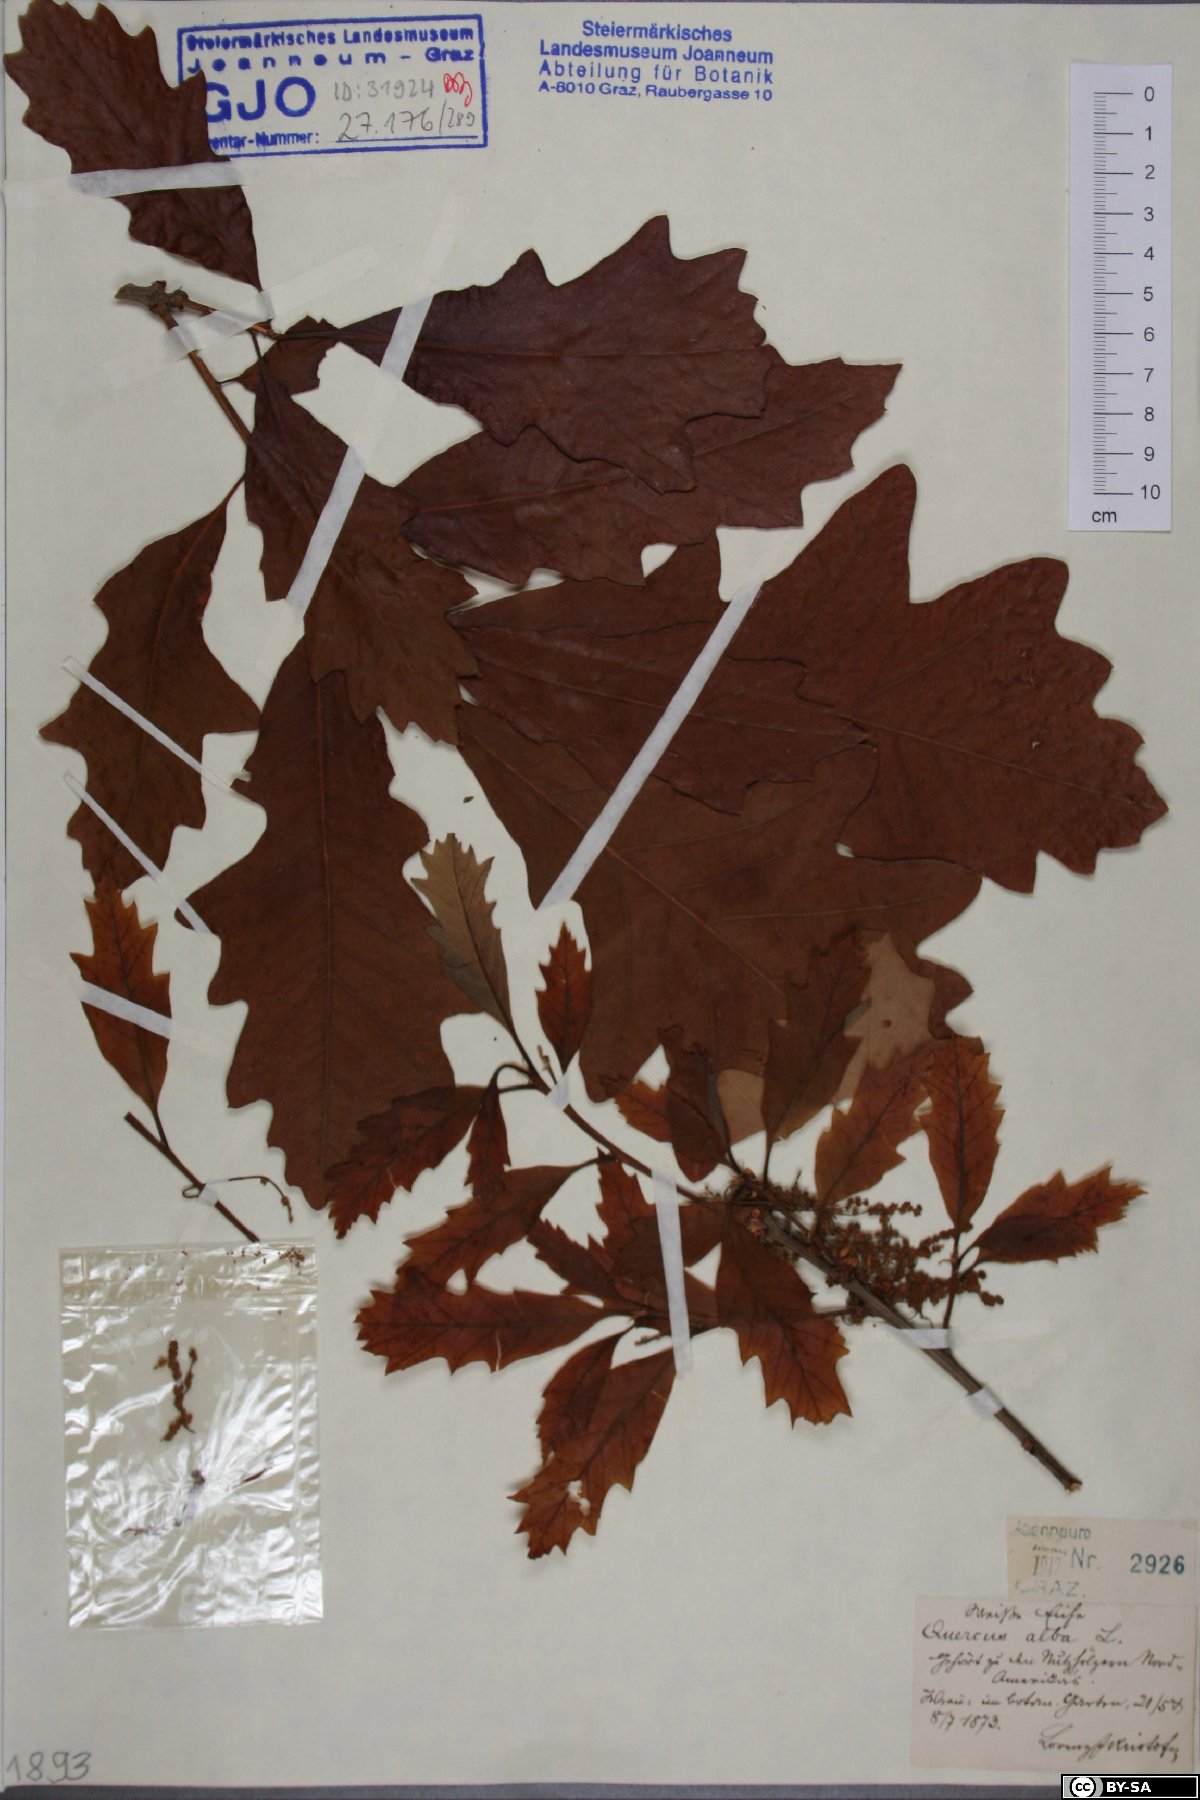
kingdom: Plantae
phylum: Tracheophyta
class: Magnoliopsida
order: Fagales
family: Fagaceae
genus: Quercus
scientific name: Quercus alba
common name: White oak
